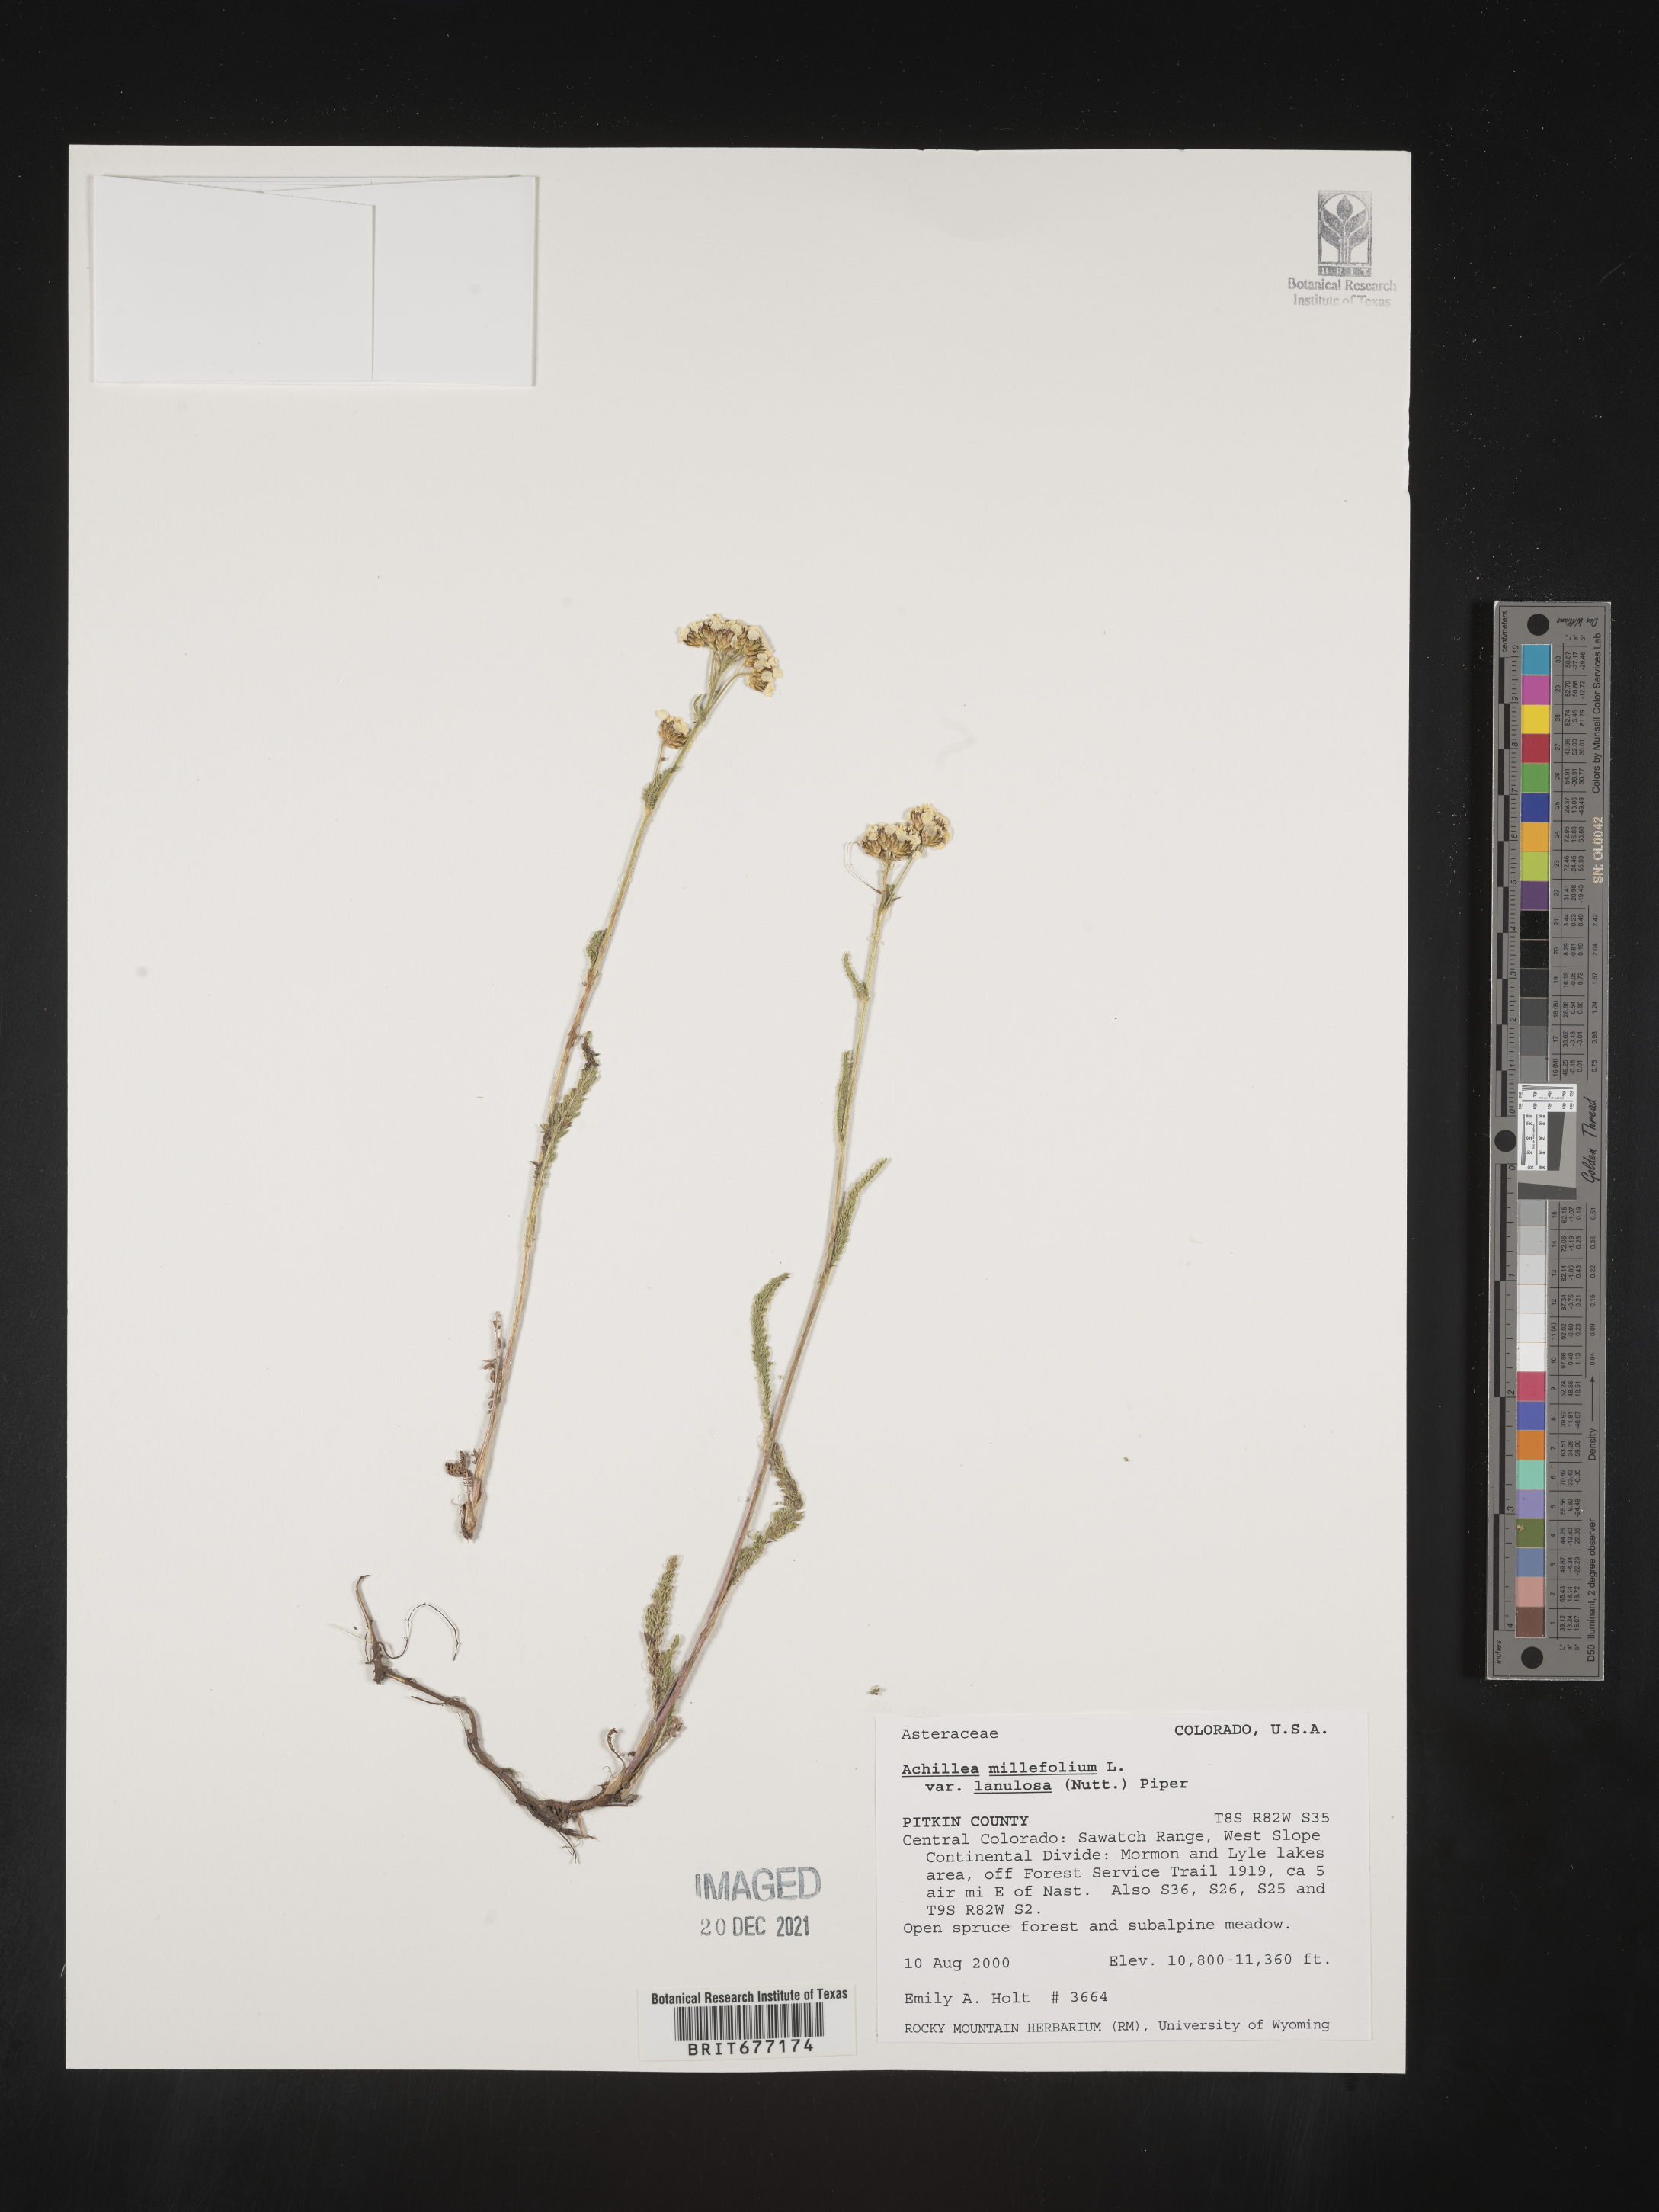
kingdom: Plantae
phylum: Tracheophyta
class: Magnoliopsida
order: Asterales
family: Asteraceae
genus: Achillea
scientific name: Achillea millefolium
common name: Yarrow
